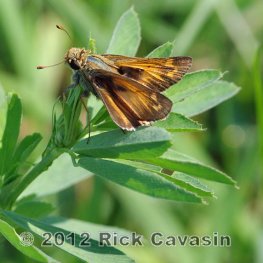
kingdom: Animalia
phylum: Arthropoda
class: Insecta
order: Lepidoptera
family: Hesperiidae
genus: Atalopedes
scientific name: Atalopedes campestris
